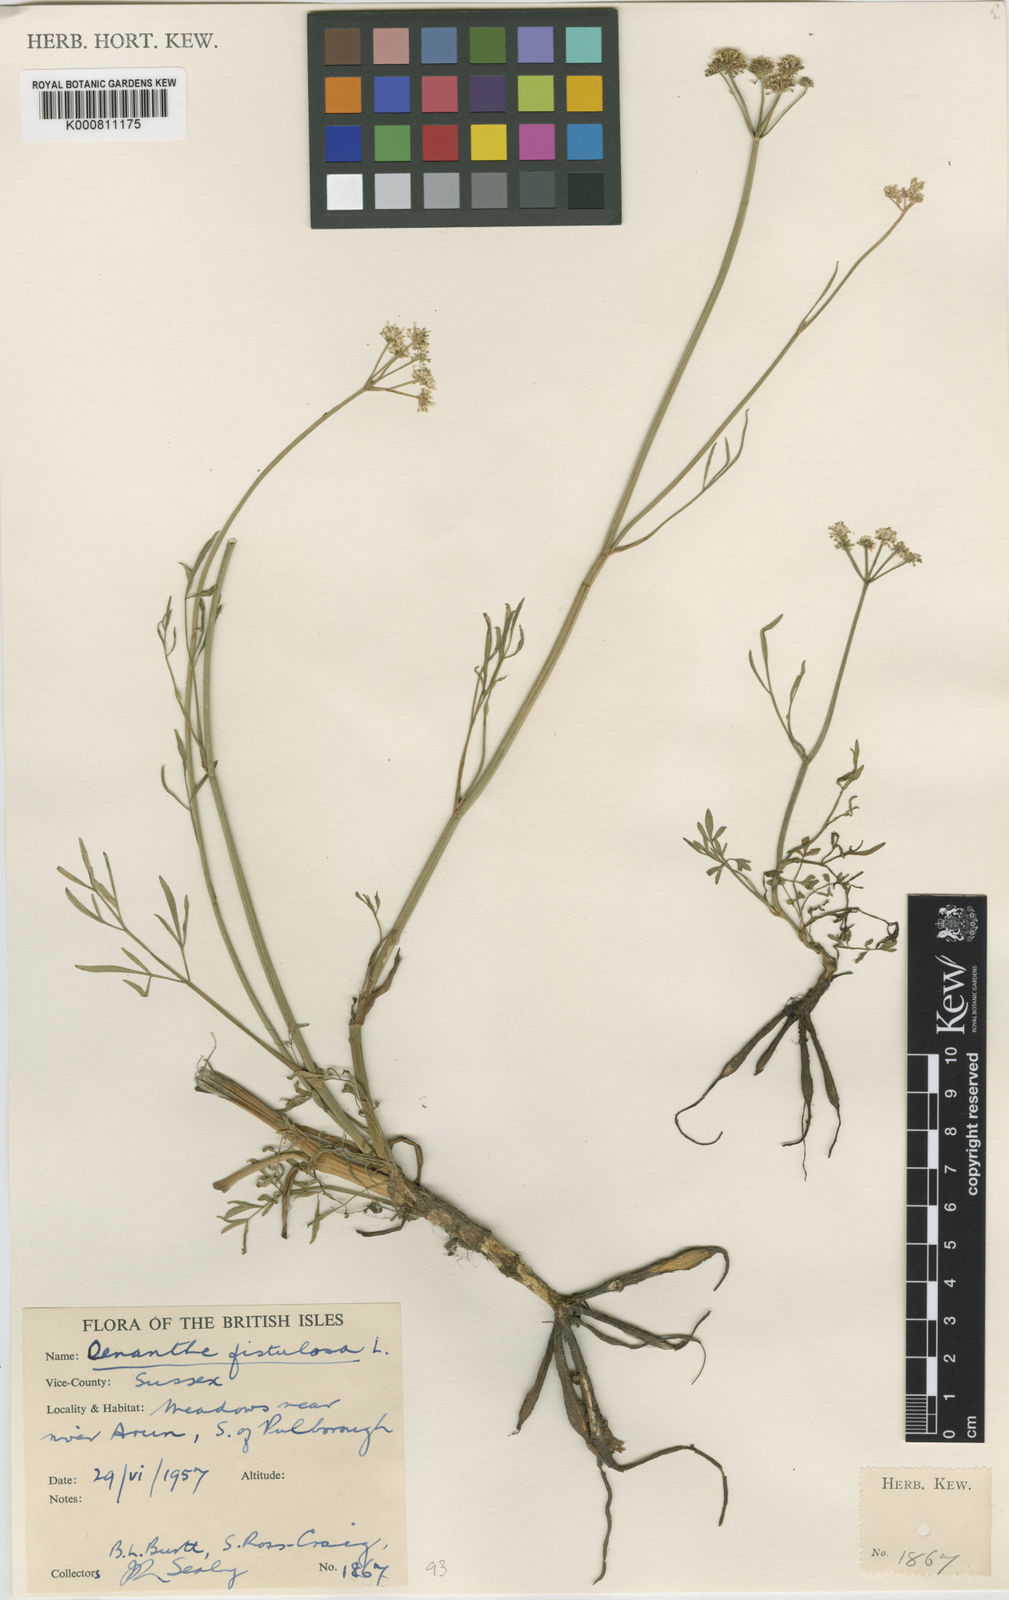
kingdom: Plantae
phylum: Tracheophyta
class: Magnoliopsida
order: Apiales
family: Apiaceae
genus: Oenanthe
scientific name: Oenanthe fistulosa
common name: Tubular water-dropwort
